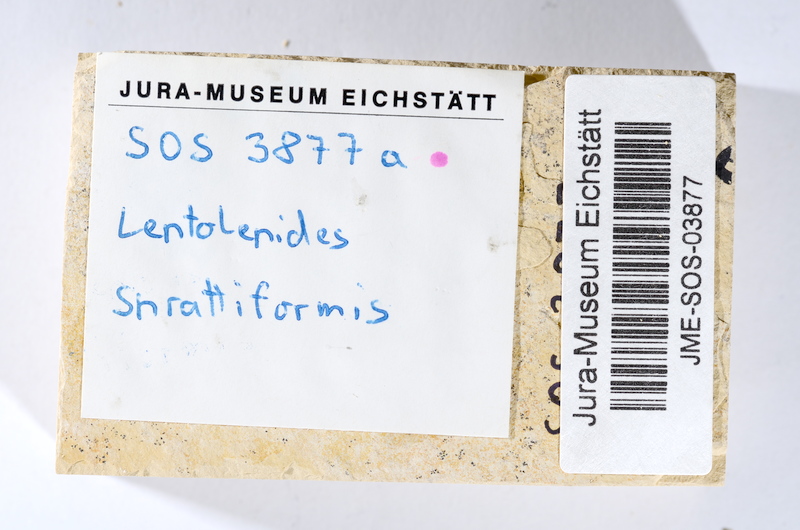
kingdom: Animalia
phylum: Chordata
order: Salmoniformes
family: Orthogonikleithridae
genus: Leptolepides
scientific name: Leptolepides sprattiformis
